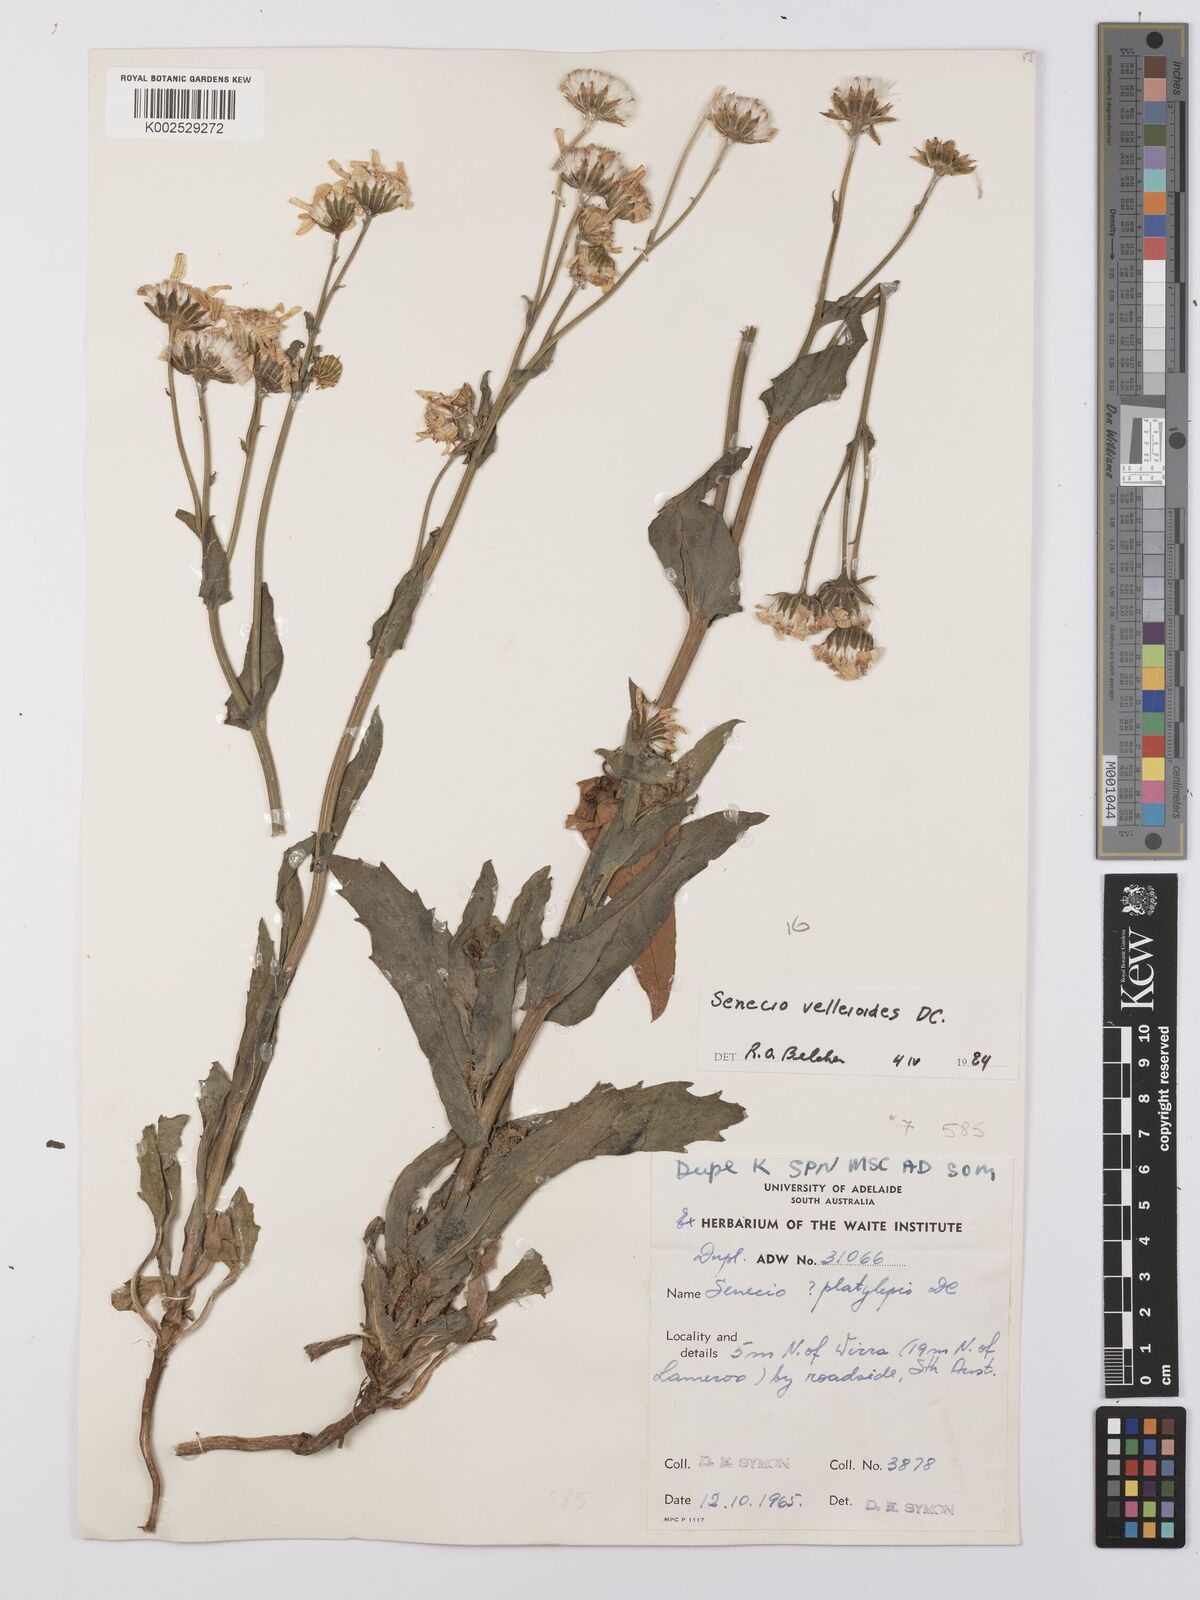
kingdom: Plantae
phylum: Tracheophyta
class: Magnoliopsida
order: Asterales
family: Asteraceae
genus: Lordhowea
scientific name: Lordhowea velleioides
